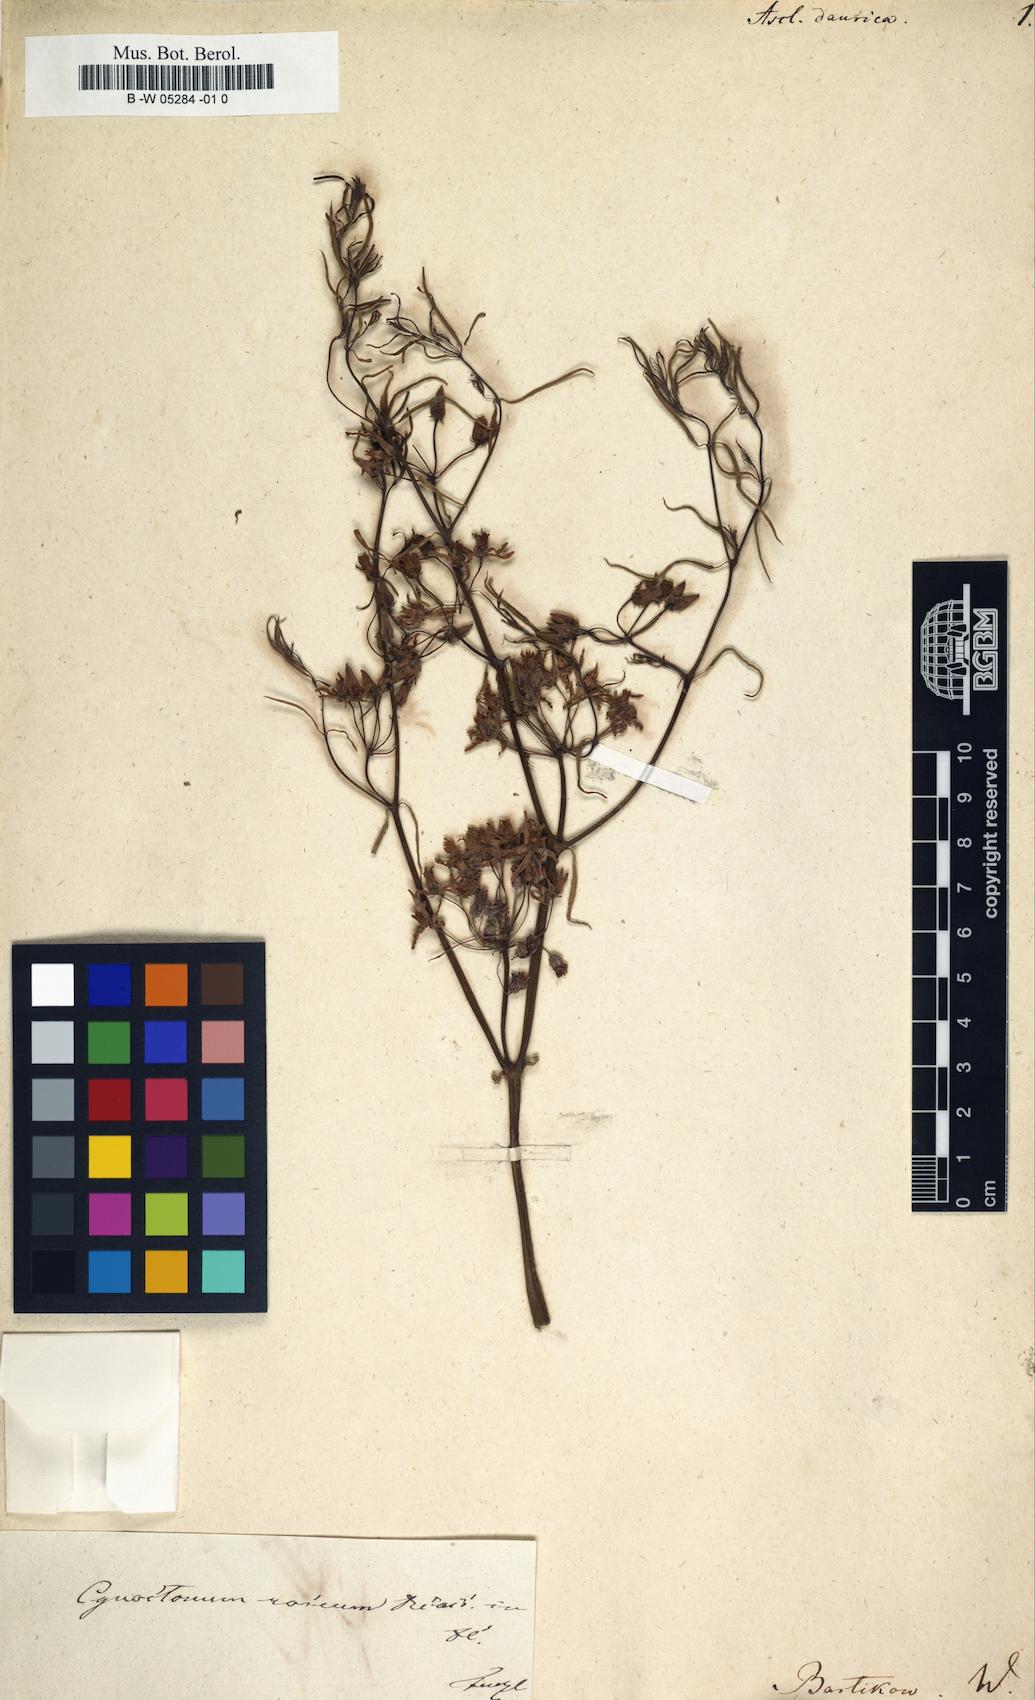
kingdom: Plantae
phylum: Tracheophyta
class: Magnoliopsida
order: Gentianales
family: Apocynaceae
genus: Asclepias
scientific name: Asclepias
